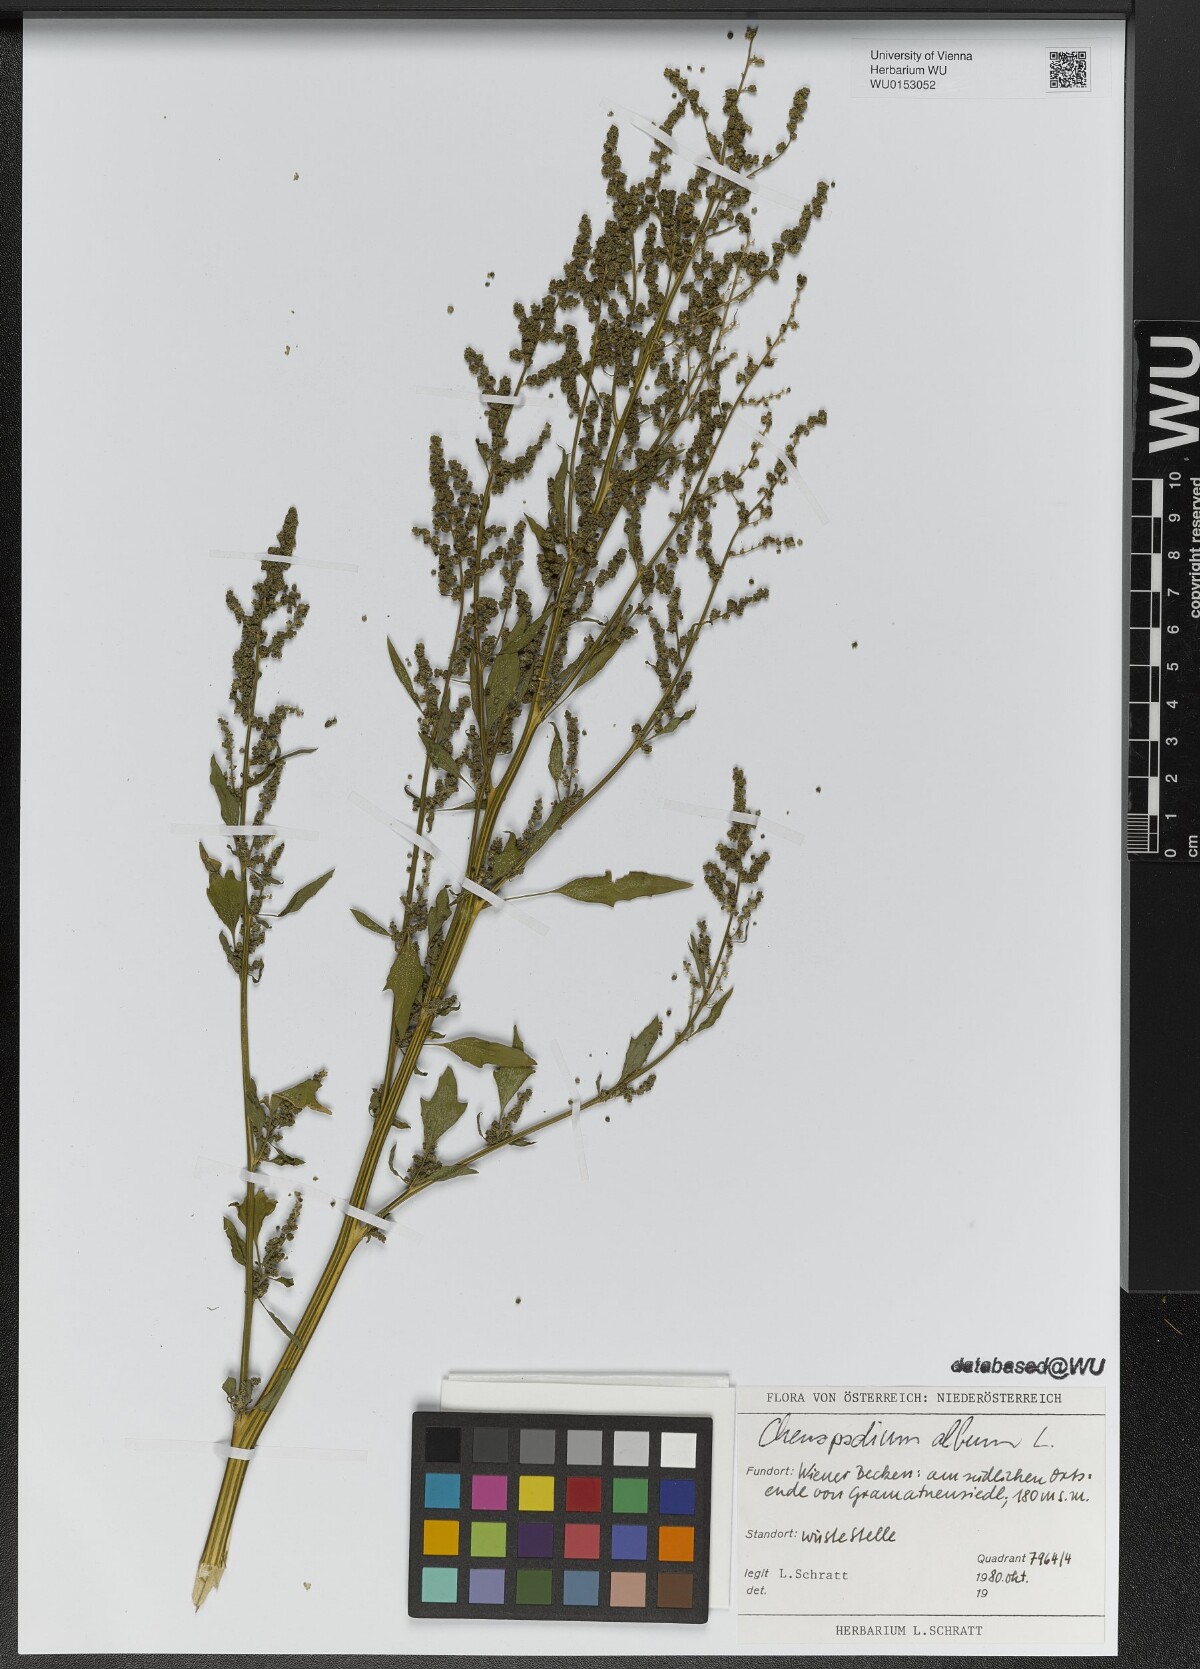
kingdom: Plantae
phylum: Tracheophyta
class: Magnoliopsida
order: Caryophyllales
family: Amaranthaceae
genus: Chenopodium
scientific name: Chenopodium album
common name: Fat-hen
